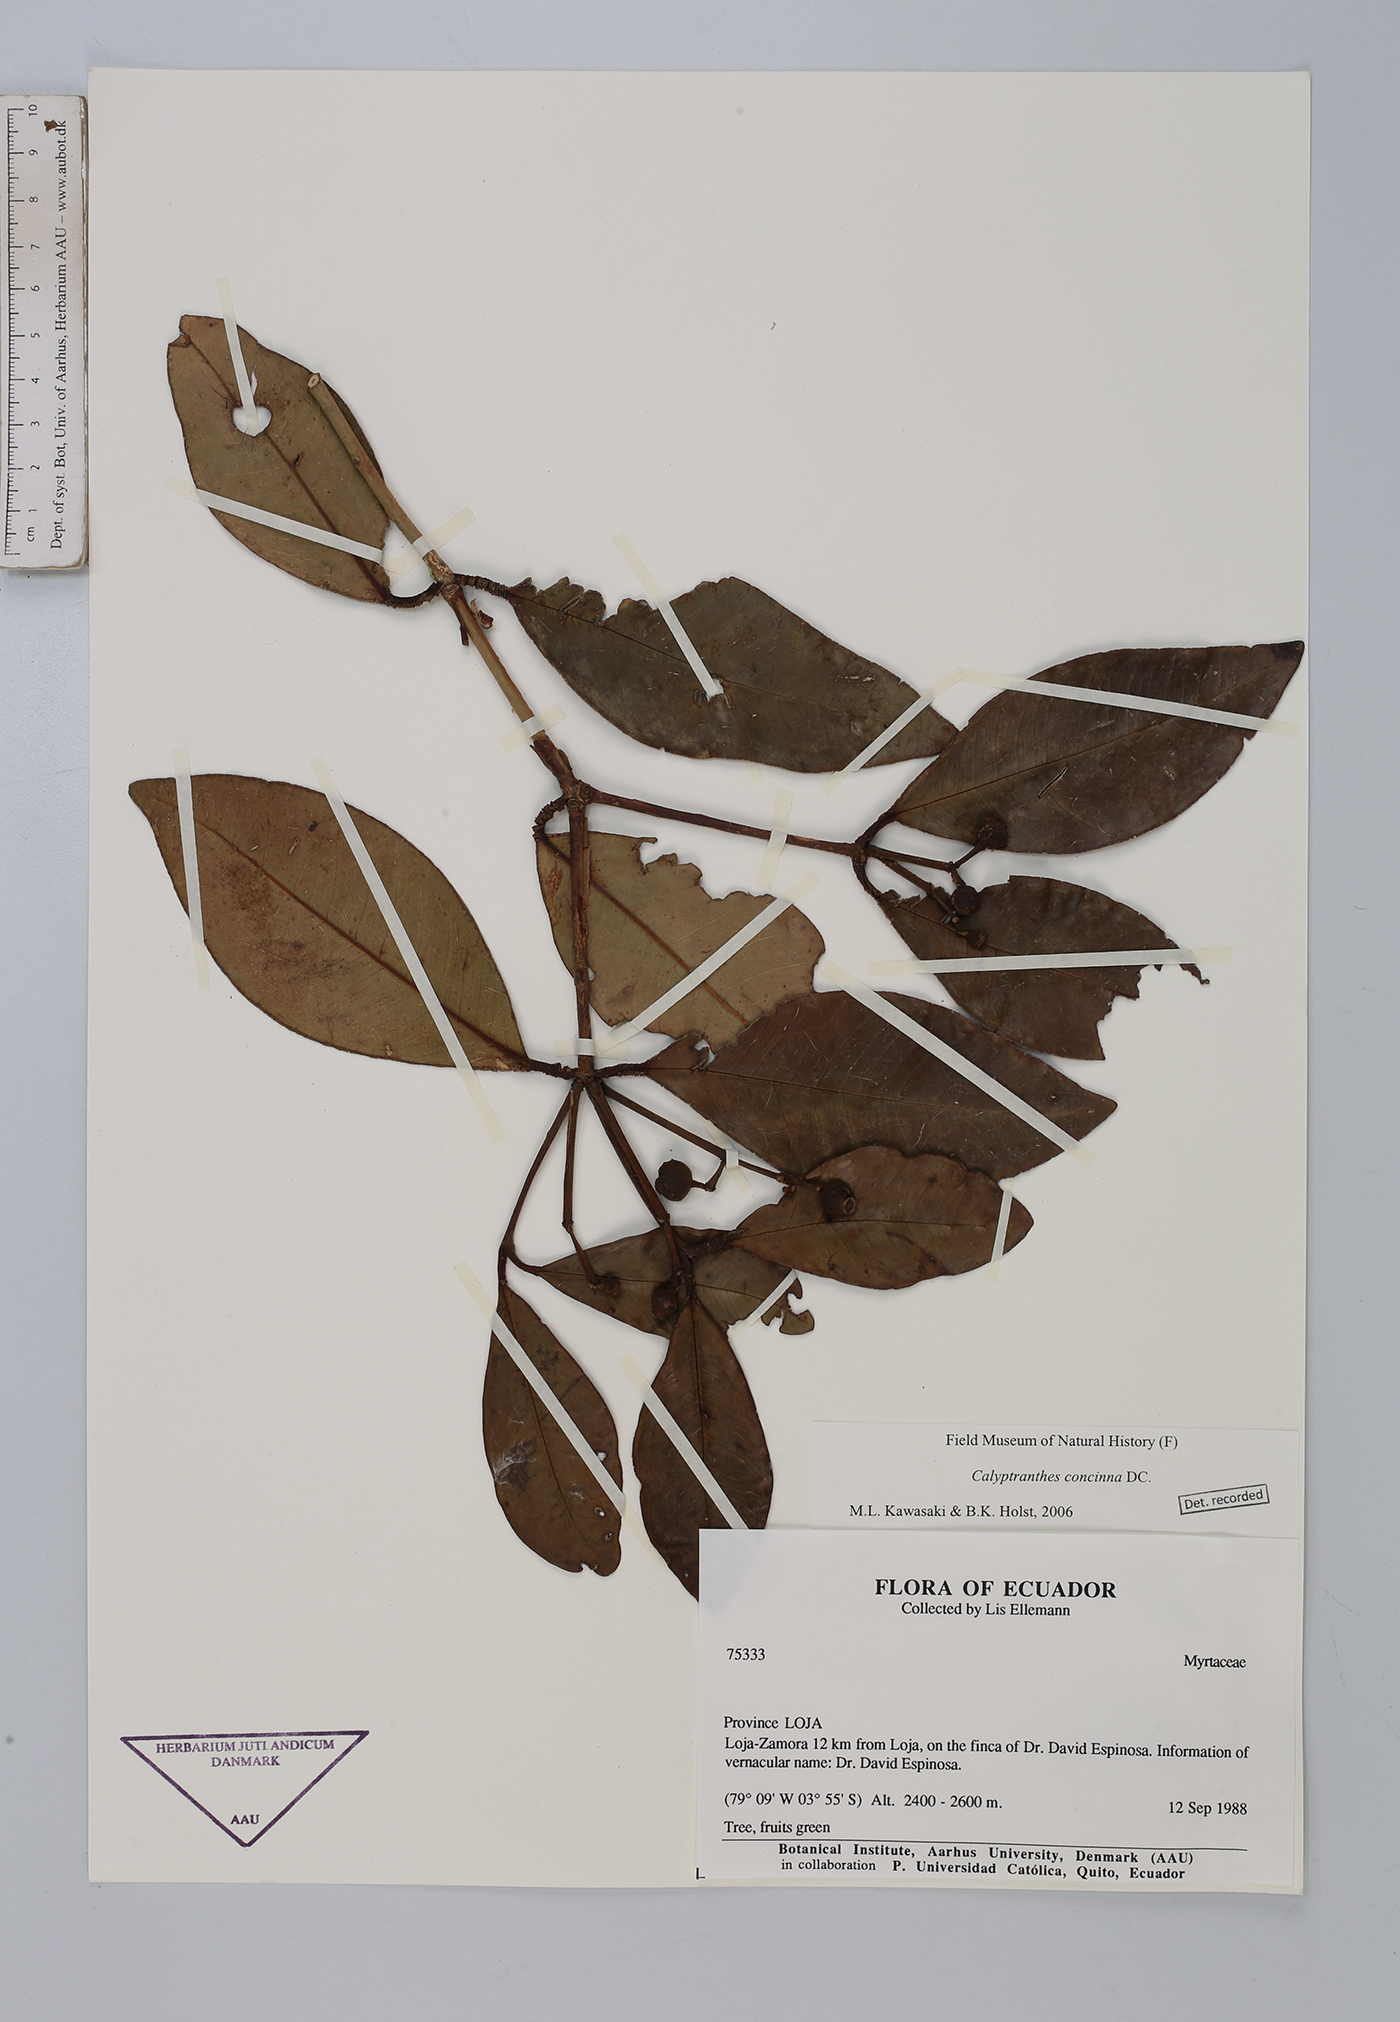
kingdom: Plantae
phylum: Tracheophyta
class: Magnoliopsida
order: Myrtales
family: Myrtaceae
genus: Myrcia
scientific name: Myrcia cruciflora
